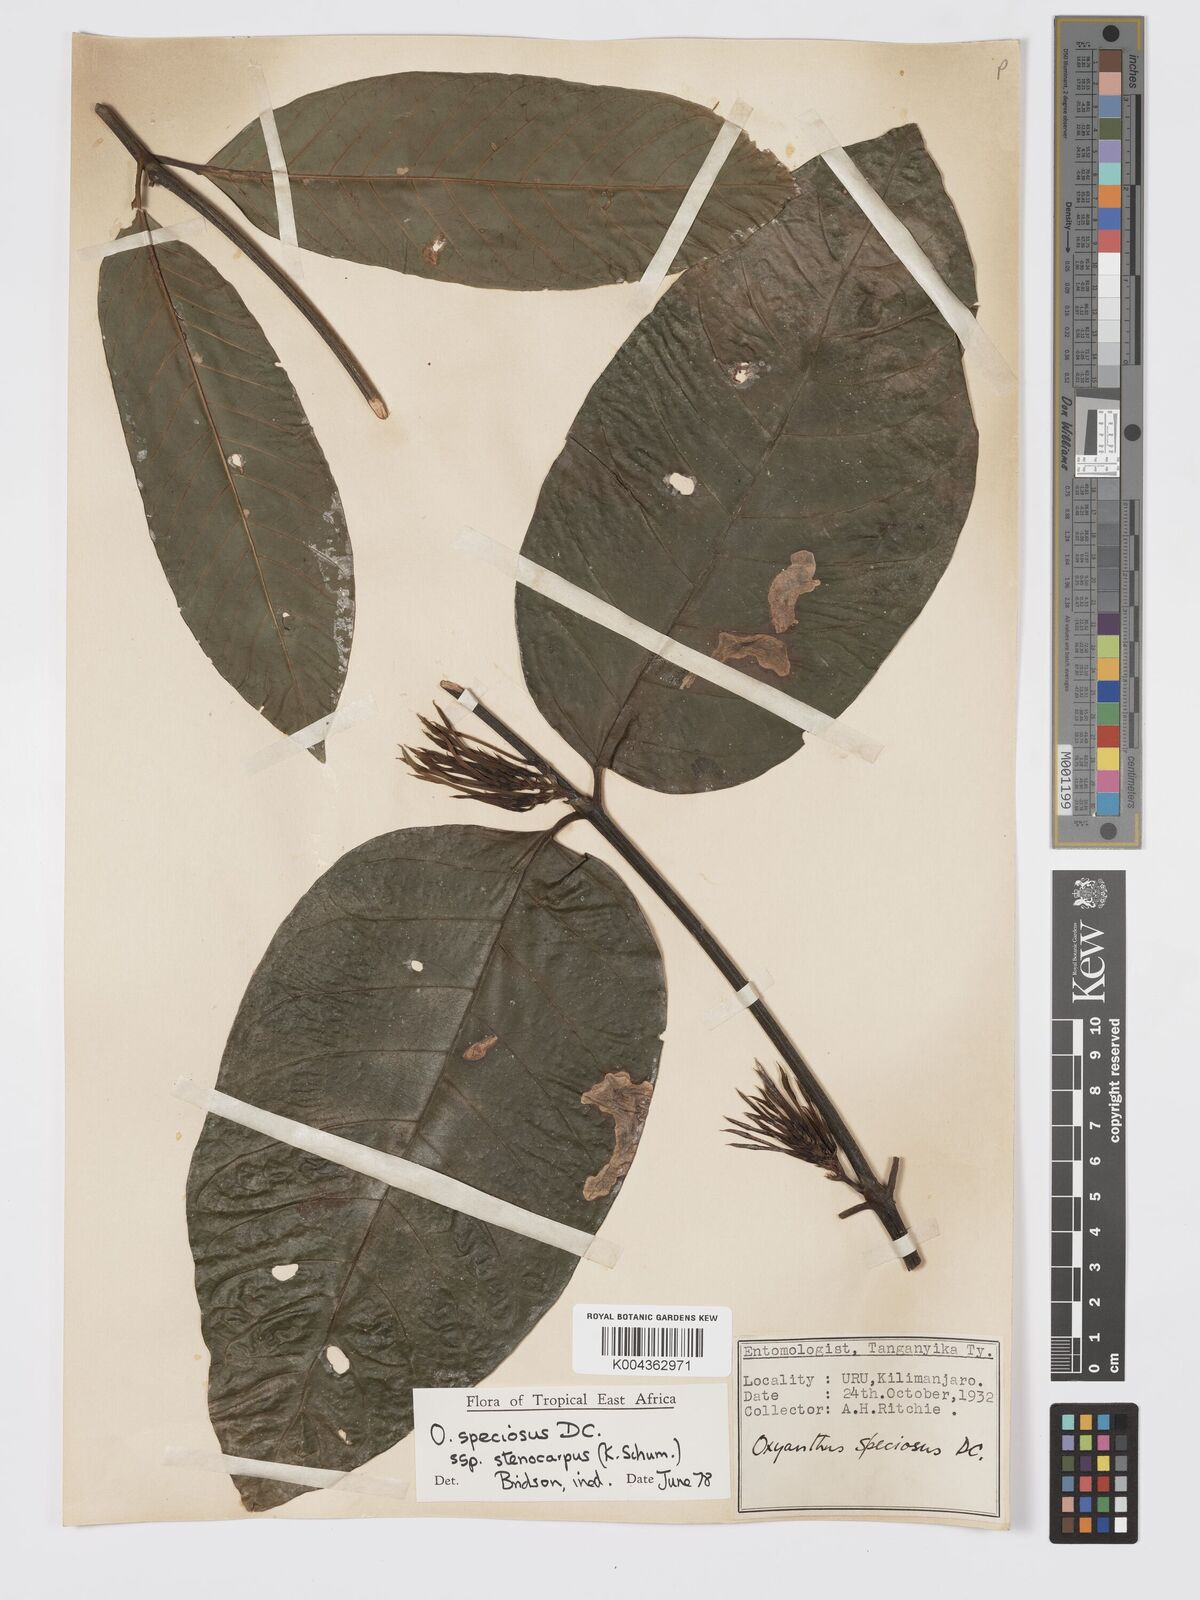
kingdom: Plantae
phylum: Tracheophyta
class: Magnoliopsida
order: Gentianales
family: Rubiaceae
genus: Oxyanthus
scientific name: Oxyanthus speciosus
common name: Whipstick loquat
